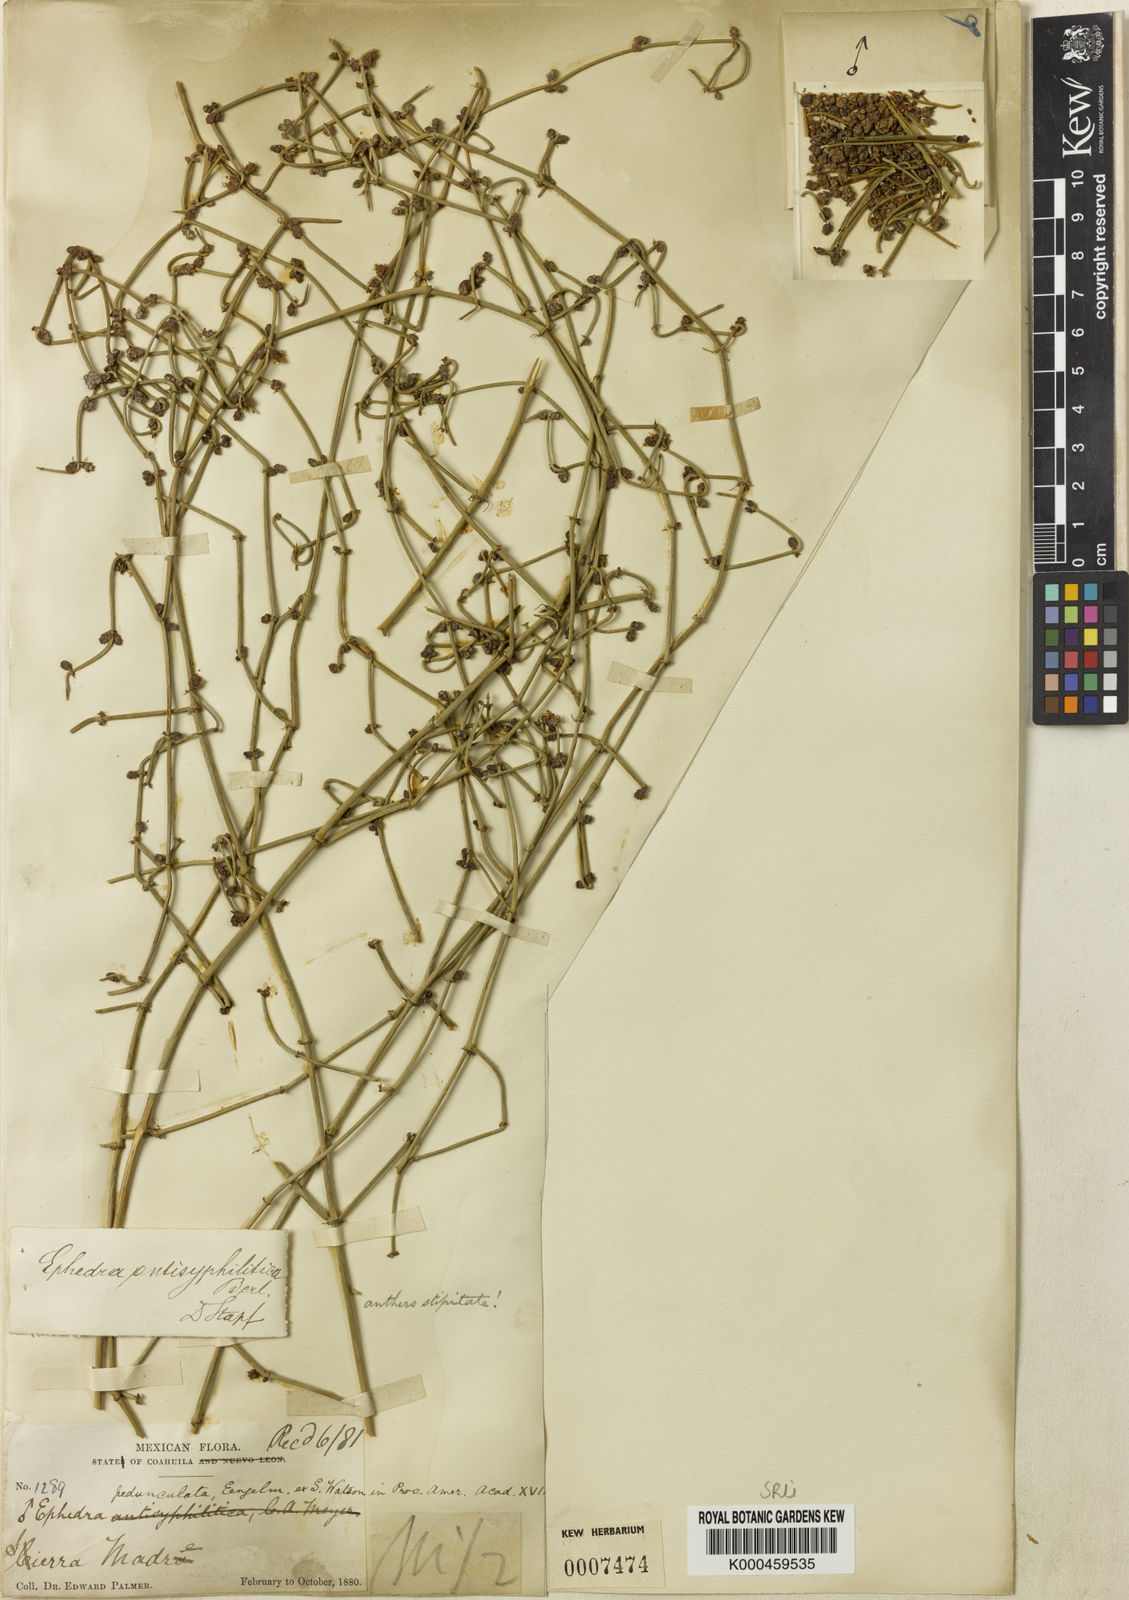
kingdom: Plantae
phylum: Tracheophyta
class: Gnetopsida
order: Ephedrales
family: Ephedraceae
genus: Ephedra
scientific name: Ephedra antisyphilitica
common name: Clipweed
